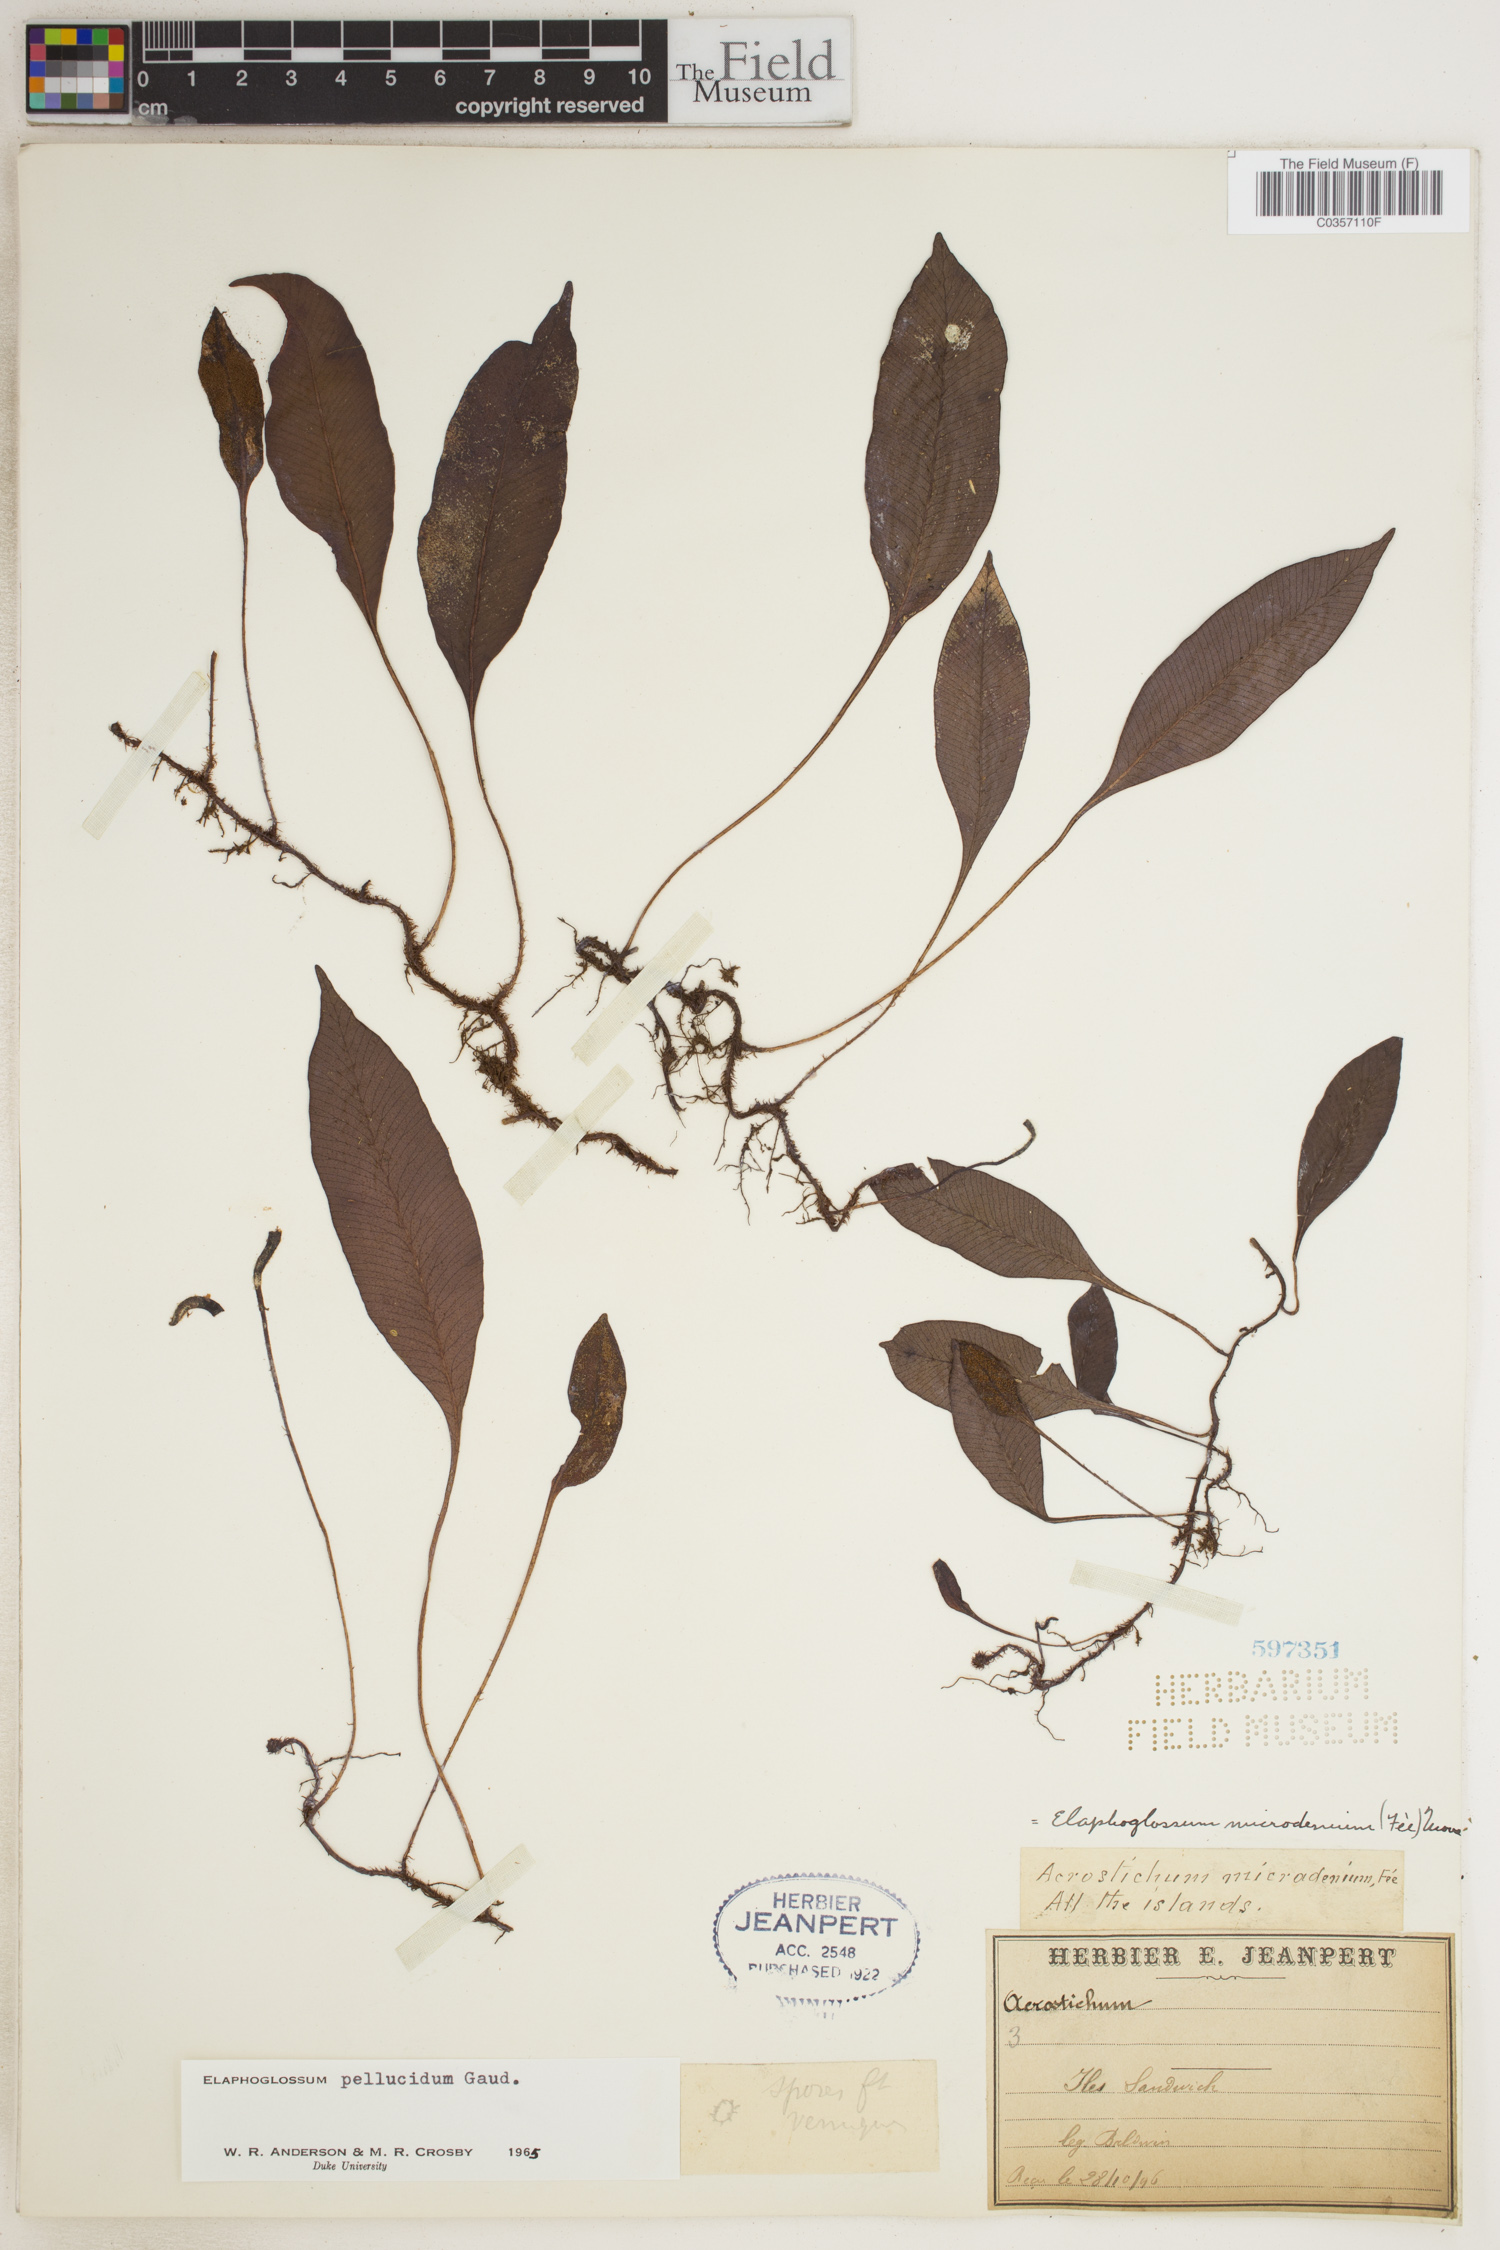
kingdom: Plantae
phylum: Tracheophyta
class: Polypodiopsida
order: Polypodiales
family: Dryopteridaceae
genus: Elaphoglossum
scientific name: Elaphoglossum micradenium
